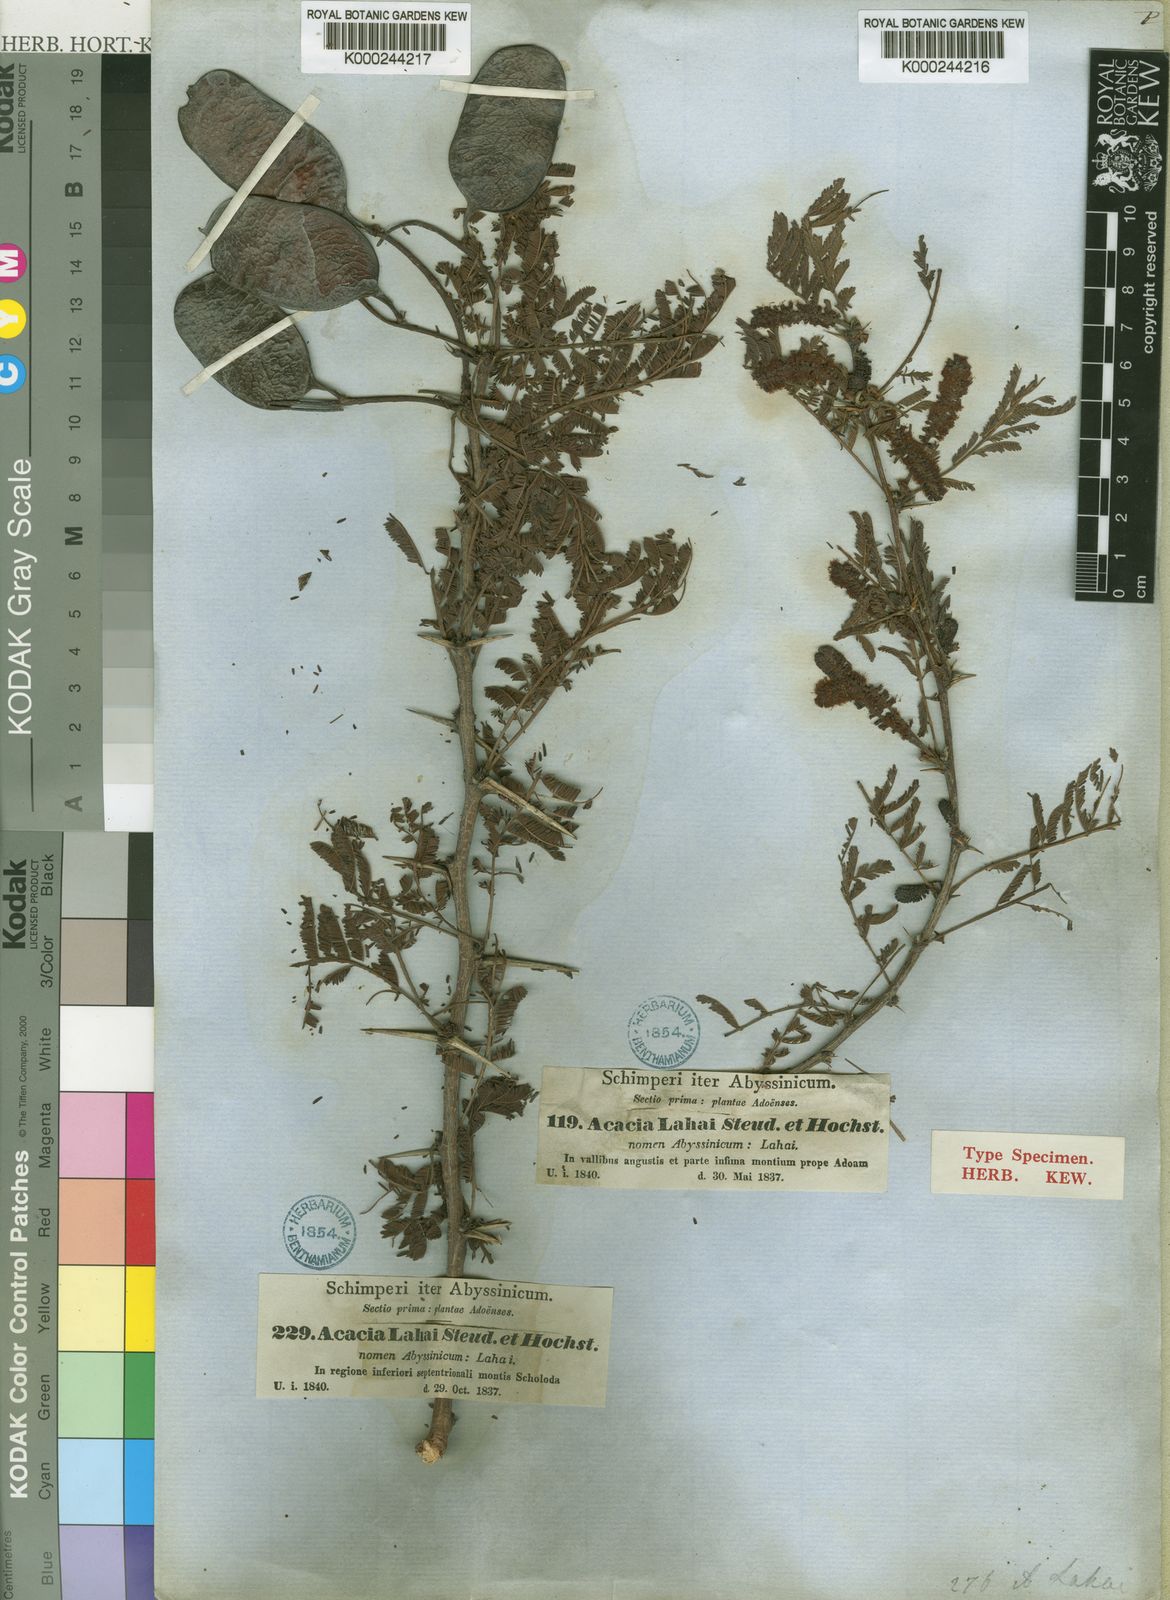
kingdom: Plantae
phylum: Tracheophyta
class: Magnoliopsida
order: Fabales
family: Fabaceae
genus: Vachellia
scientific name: Vachellia lahai
